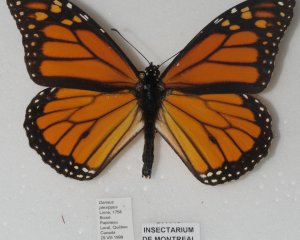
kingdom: Animalia
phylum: Arthropoda
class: Insecta
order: Lepidoptera
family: Nymphalidae
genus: Danaus
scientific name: Danaus plexippus
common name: Monarch
